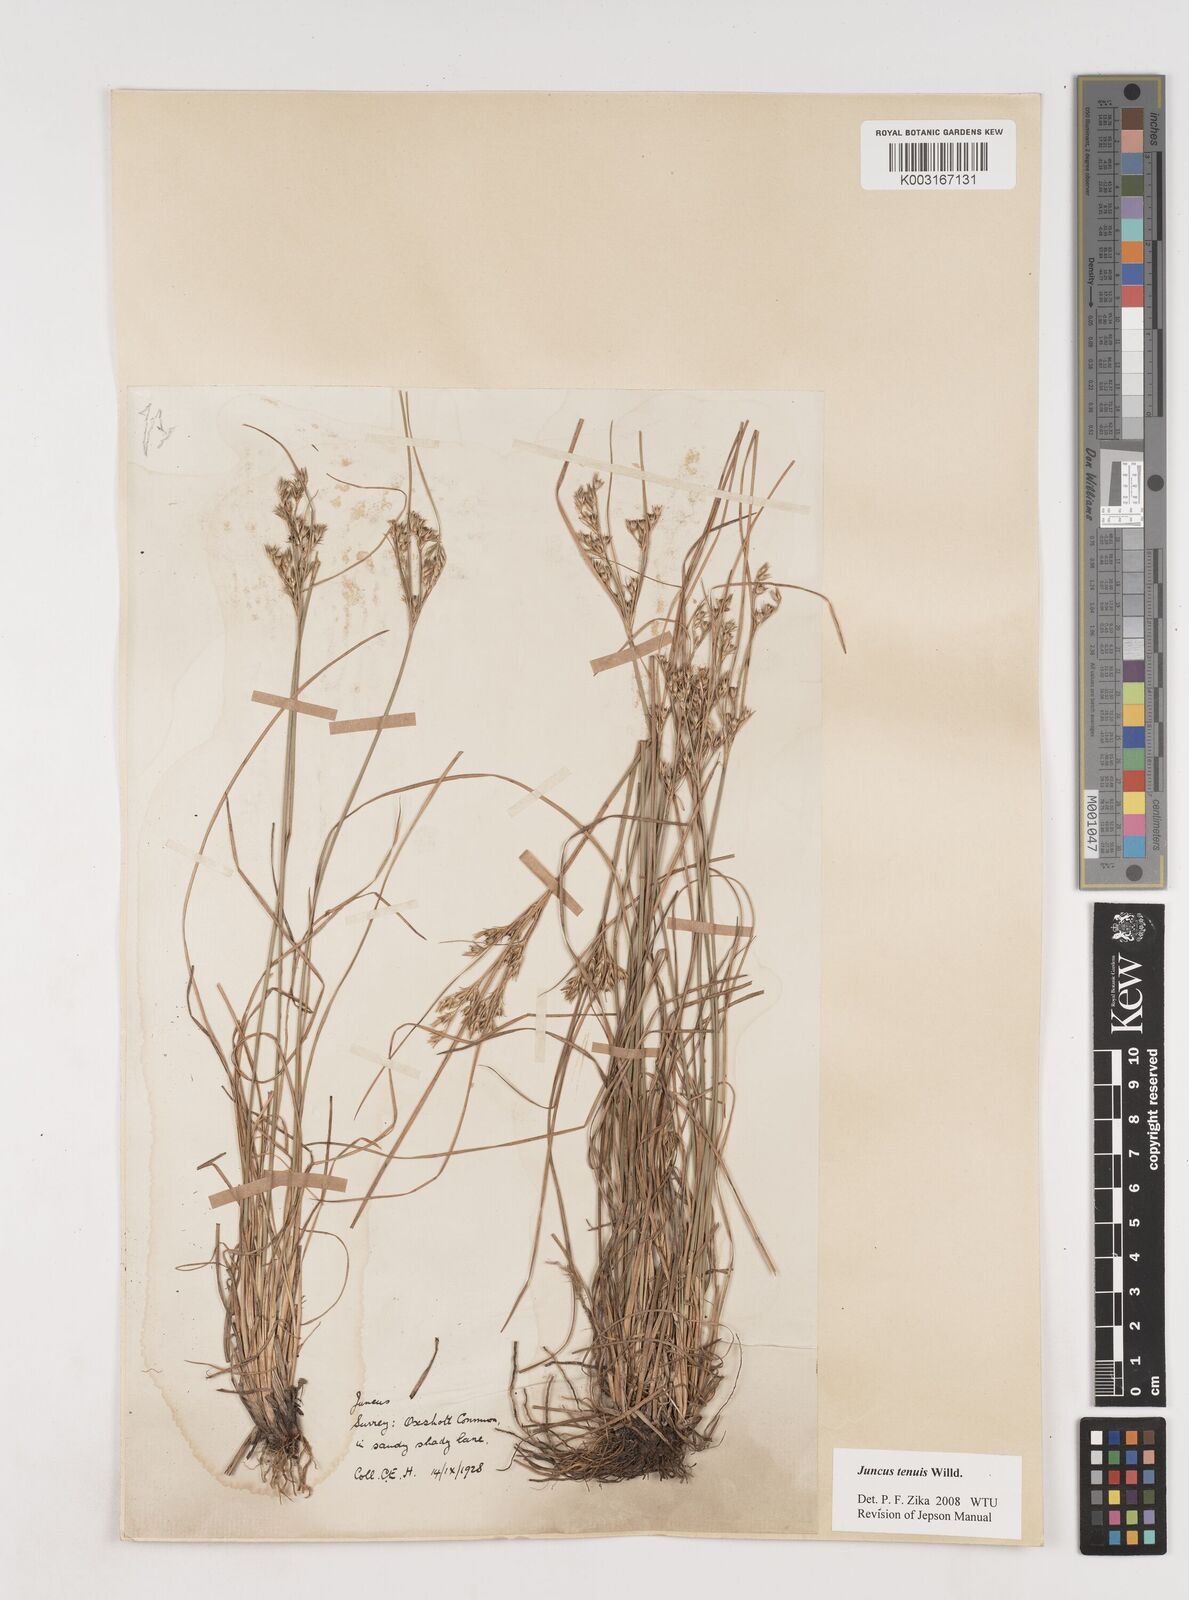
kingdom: Plantae
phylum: Tracheophyta
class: Liliopsida
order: Poales
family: Juncaceae
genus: Juncus
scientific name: Juncus tenuis
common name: Slender rush
